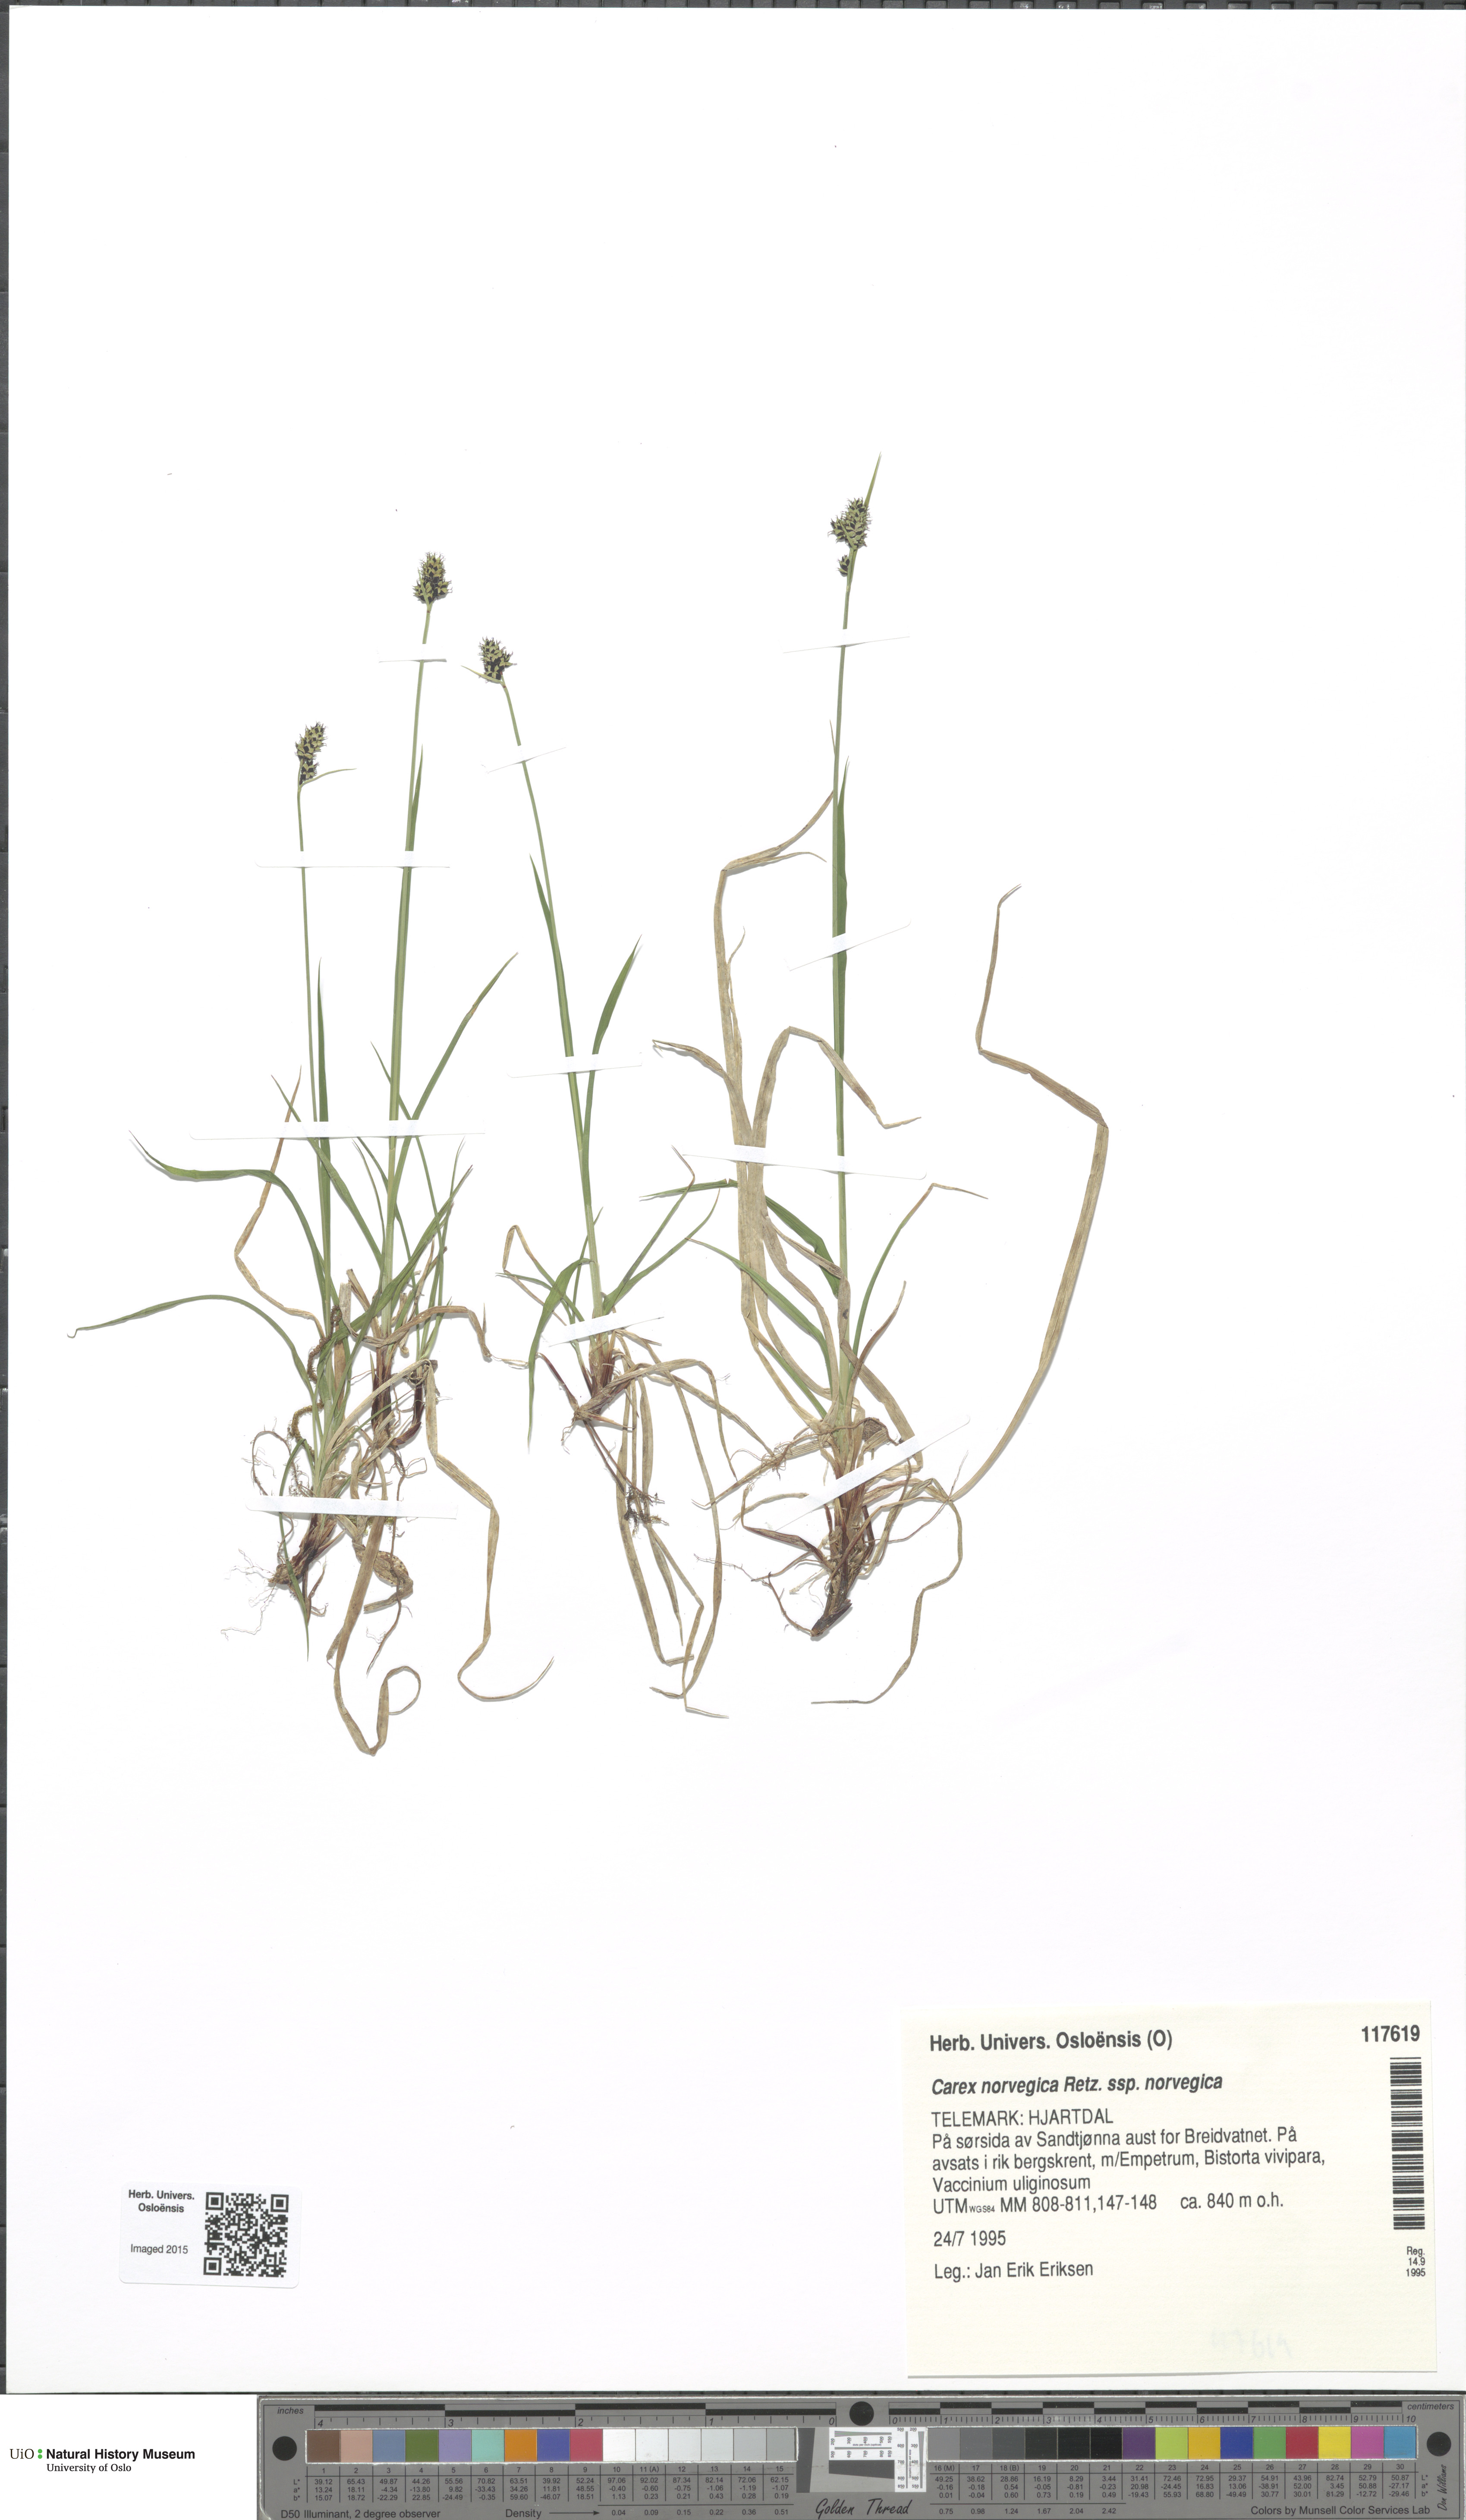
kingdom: Plantae
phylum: Tracheophyta
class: Liliopsida
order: Poales
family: Cyperaceae
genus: Carex
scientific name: Carex norvegica
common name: Close-headed alpine-sedge
